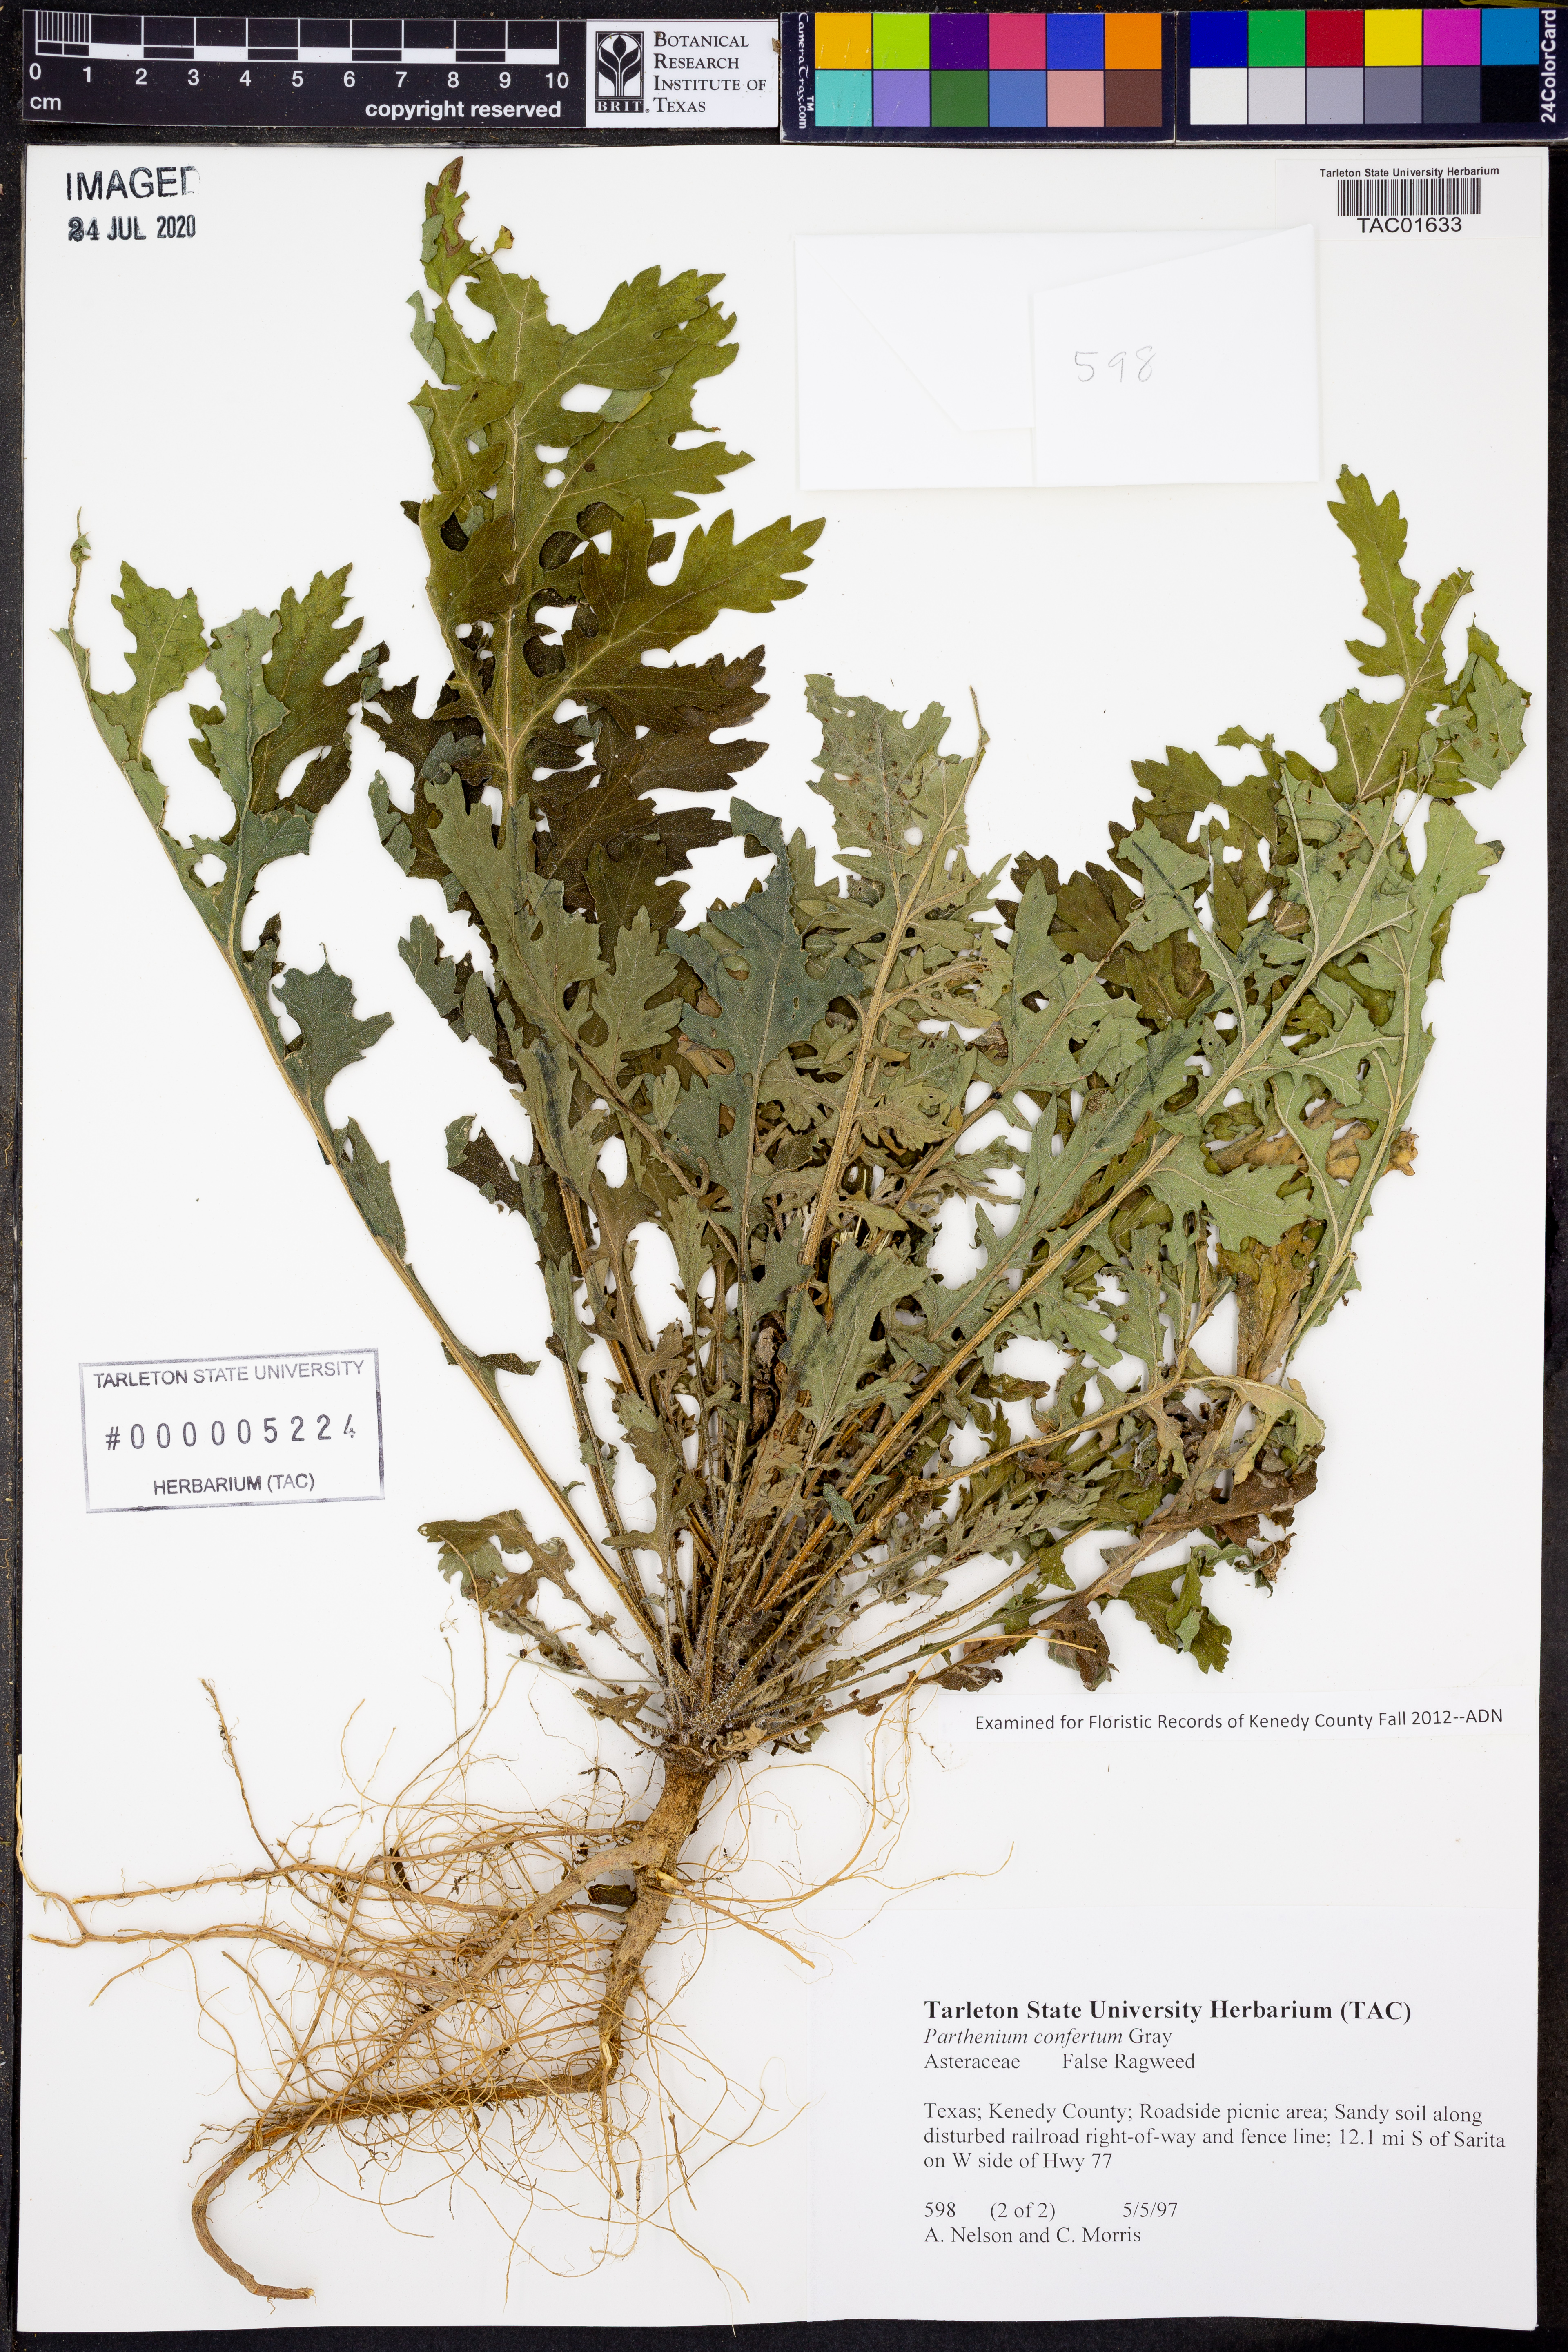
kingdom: Plantae
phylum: Tracheophyta
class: Magnoliopsida
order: Asterales
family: Asteraceae
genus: Parthenium
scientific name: Parthenium confertum
